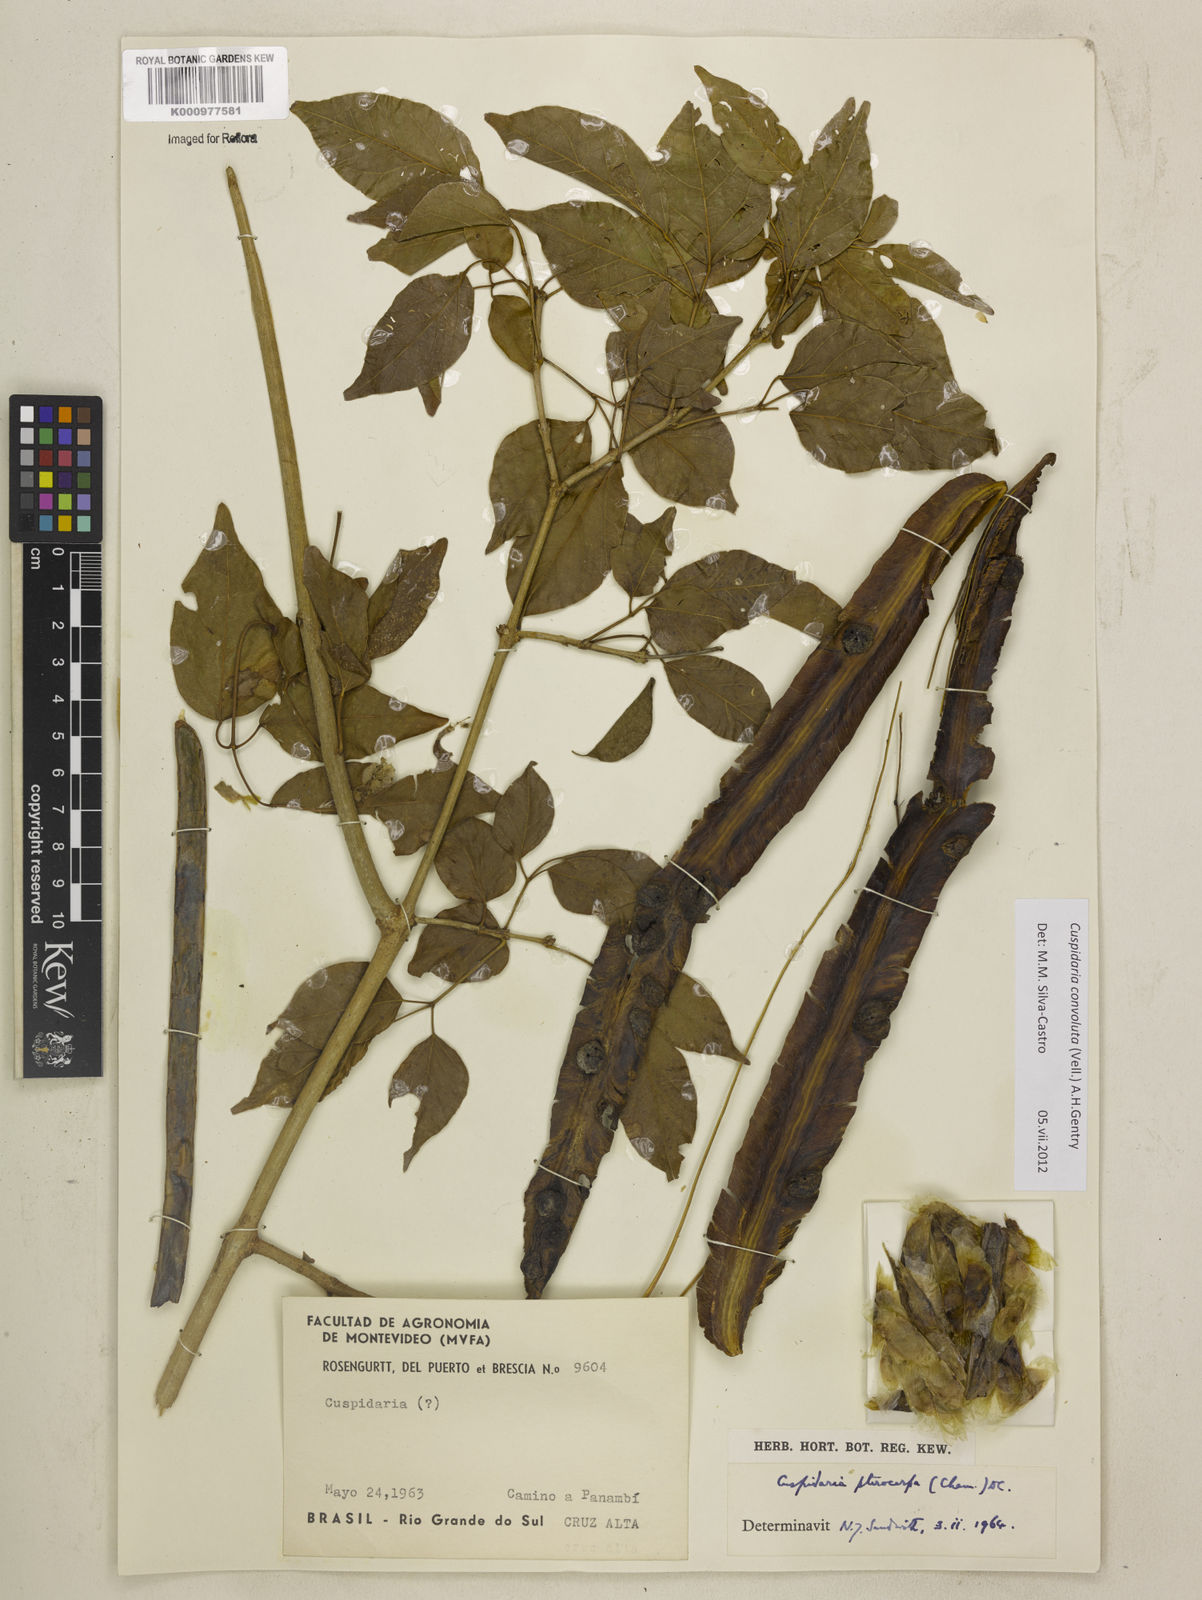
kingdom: Plantae
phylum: Tracheophyta
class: Magnoliopsida
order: Lamiales
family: Bignoniaceae
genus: Cuspidaria
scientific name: Cuspidaria convoluta
